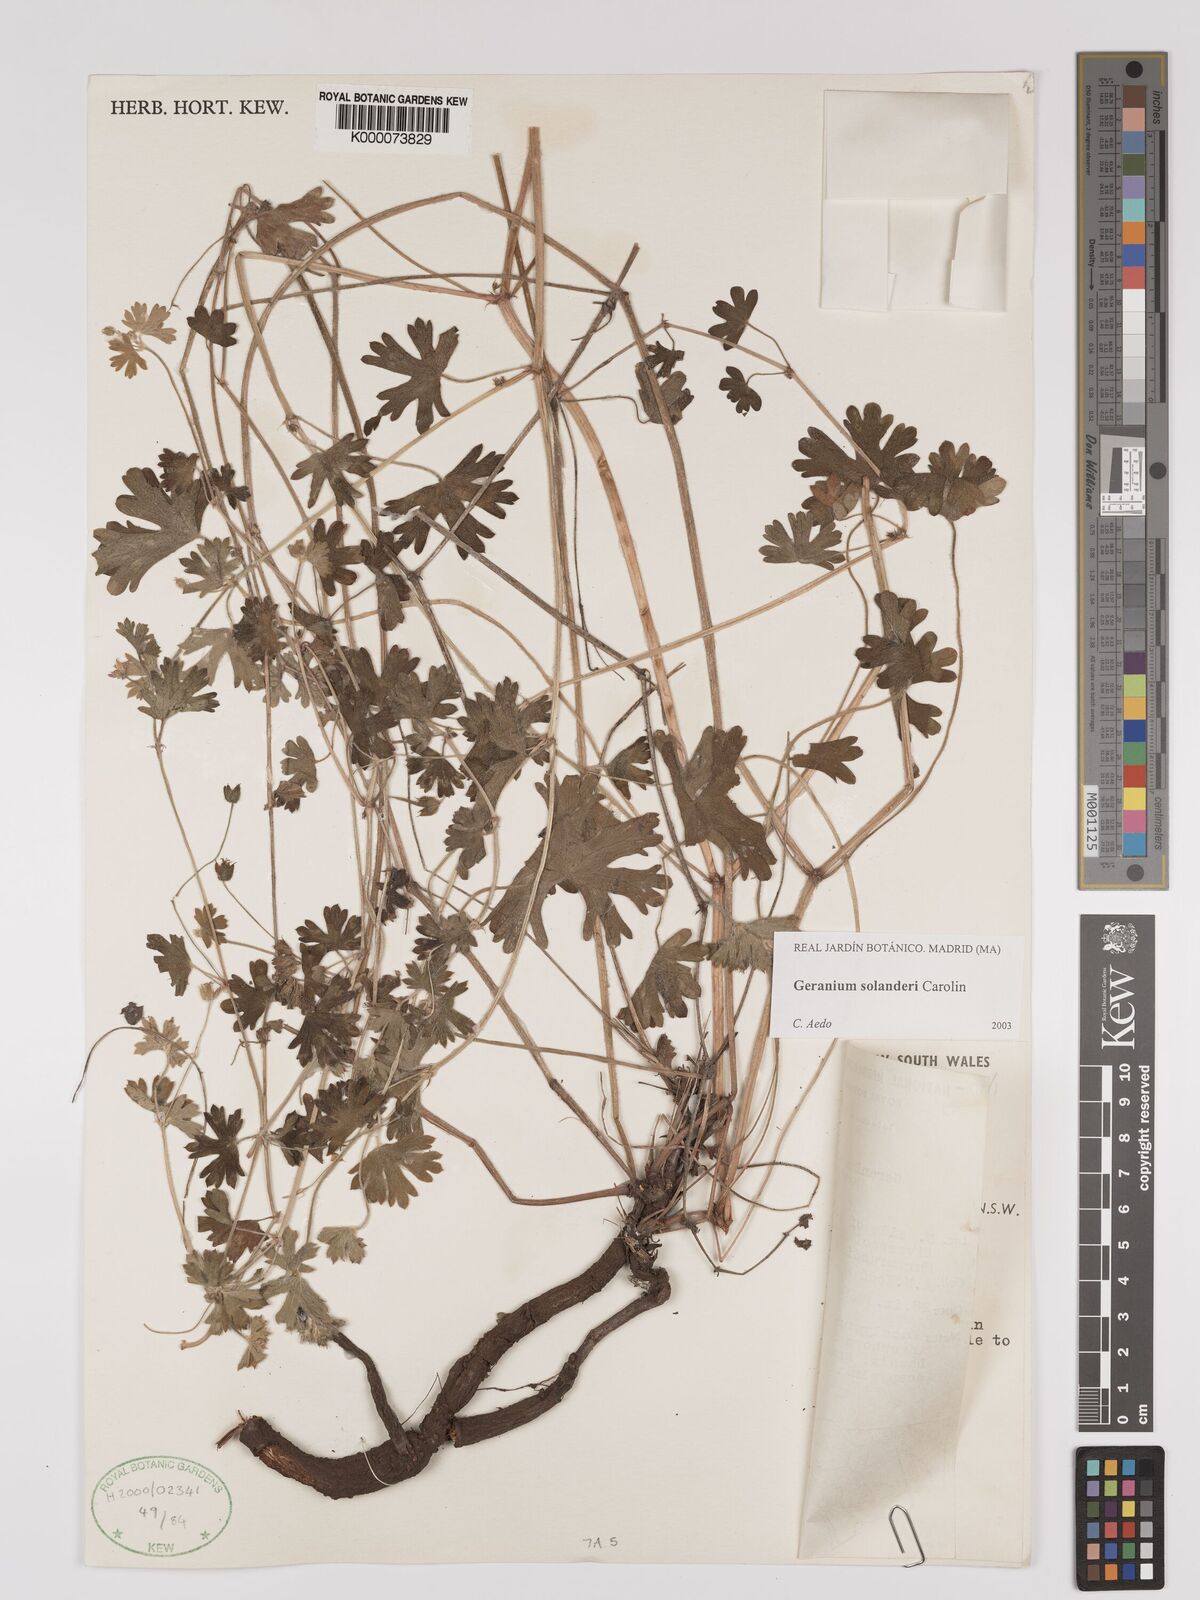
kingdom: Plantae
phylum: Tracheophyta
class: Magnoliopsida
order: Geraniales
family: Geraniaceae
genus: Geranium
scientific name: Geranium solanderi
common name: Solander's geranium
